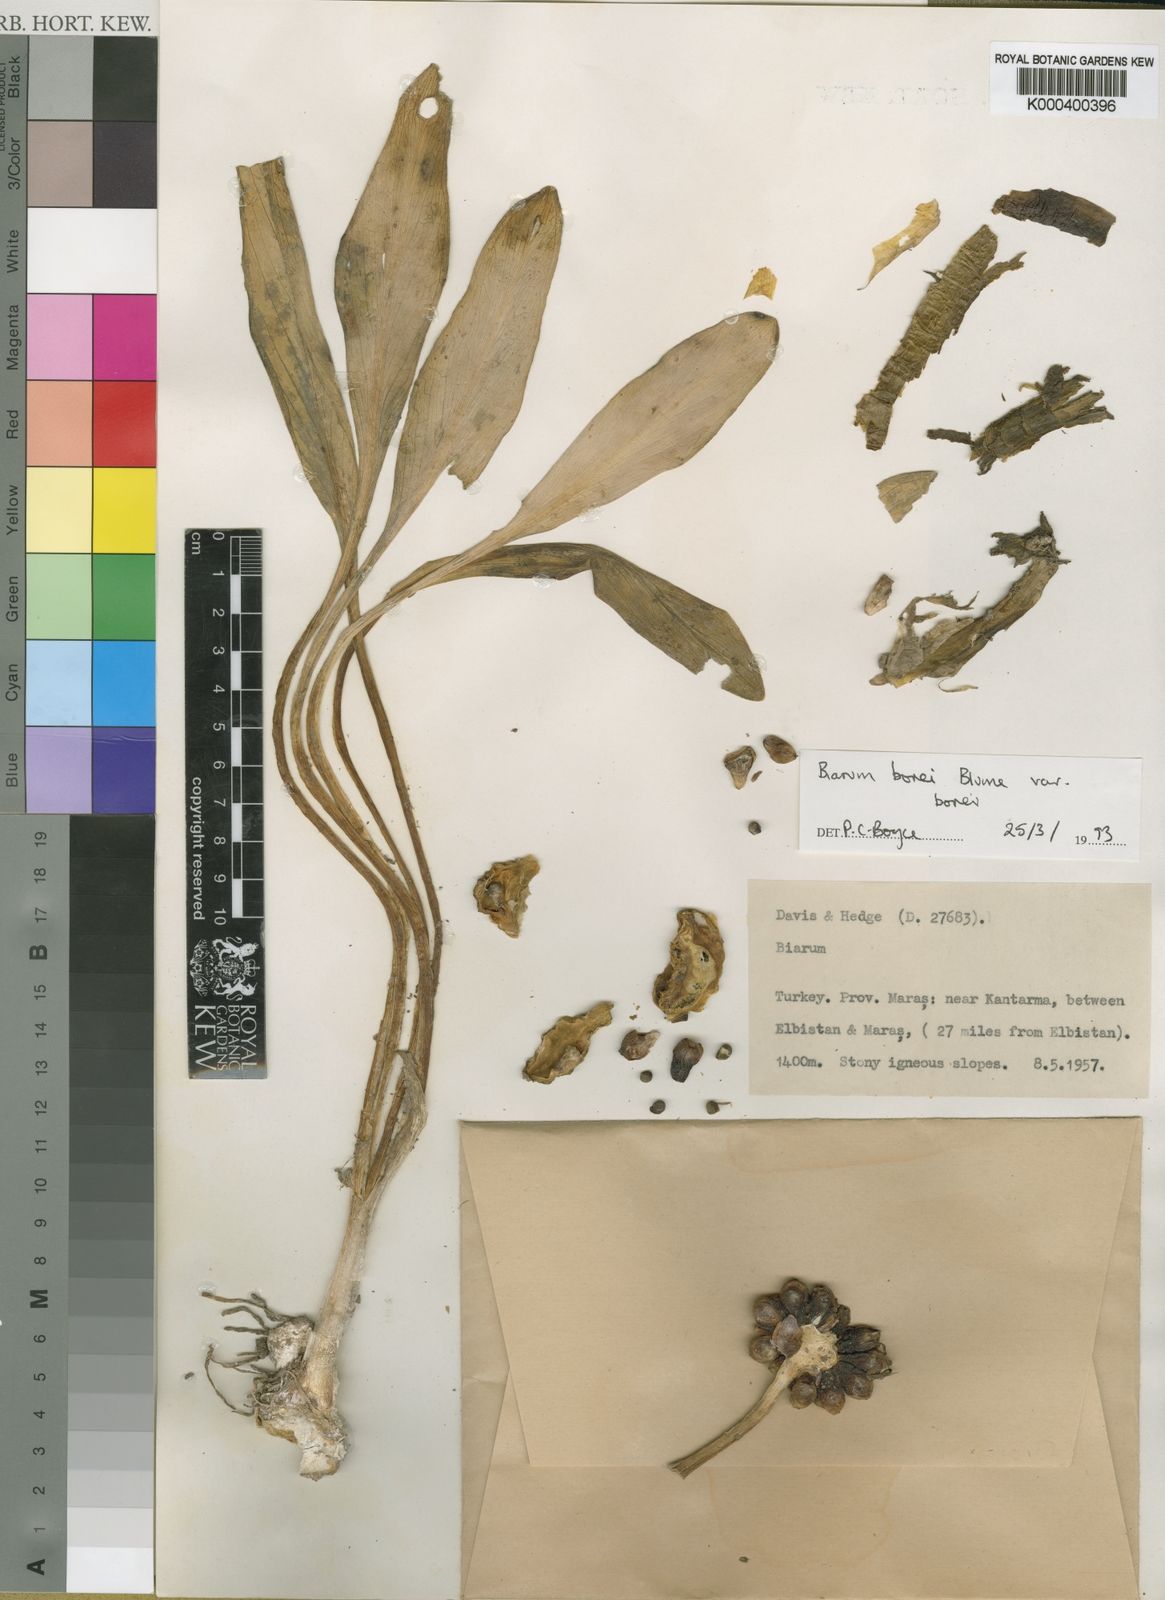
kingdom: Plantae
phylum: Tracheophyta
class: Liliopsida
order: Alismatales
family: Araceae
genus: Biarum
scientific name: Biarum bovei
